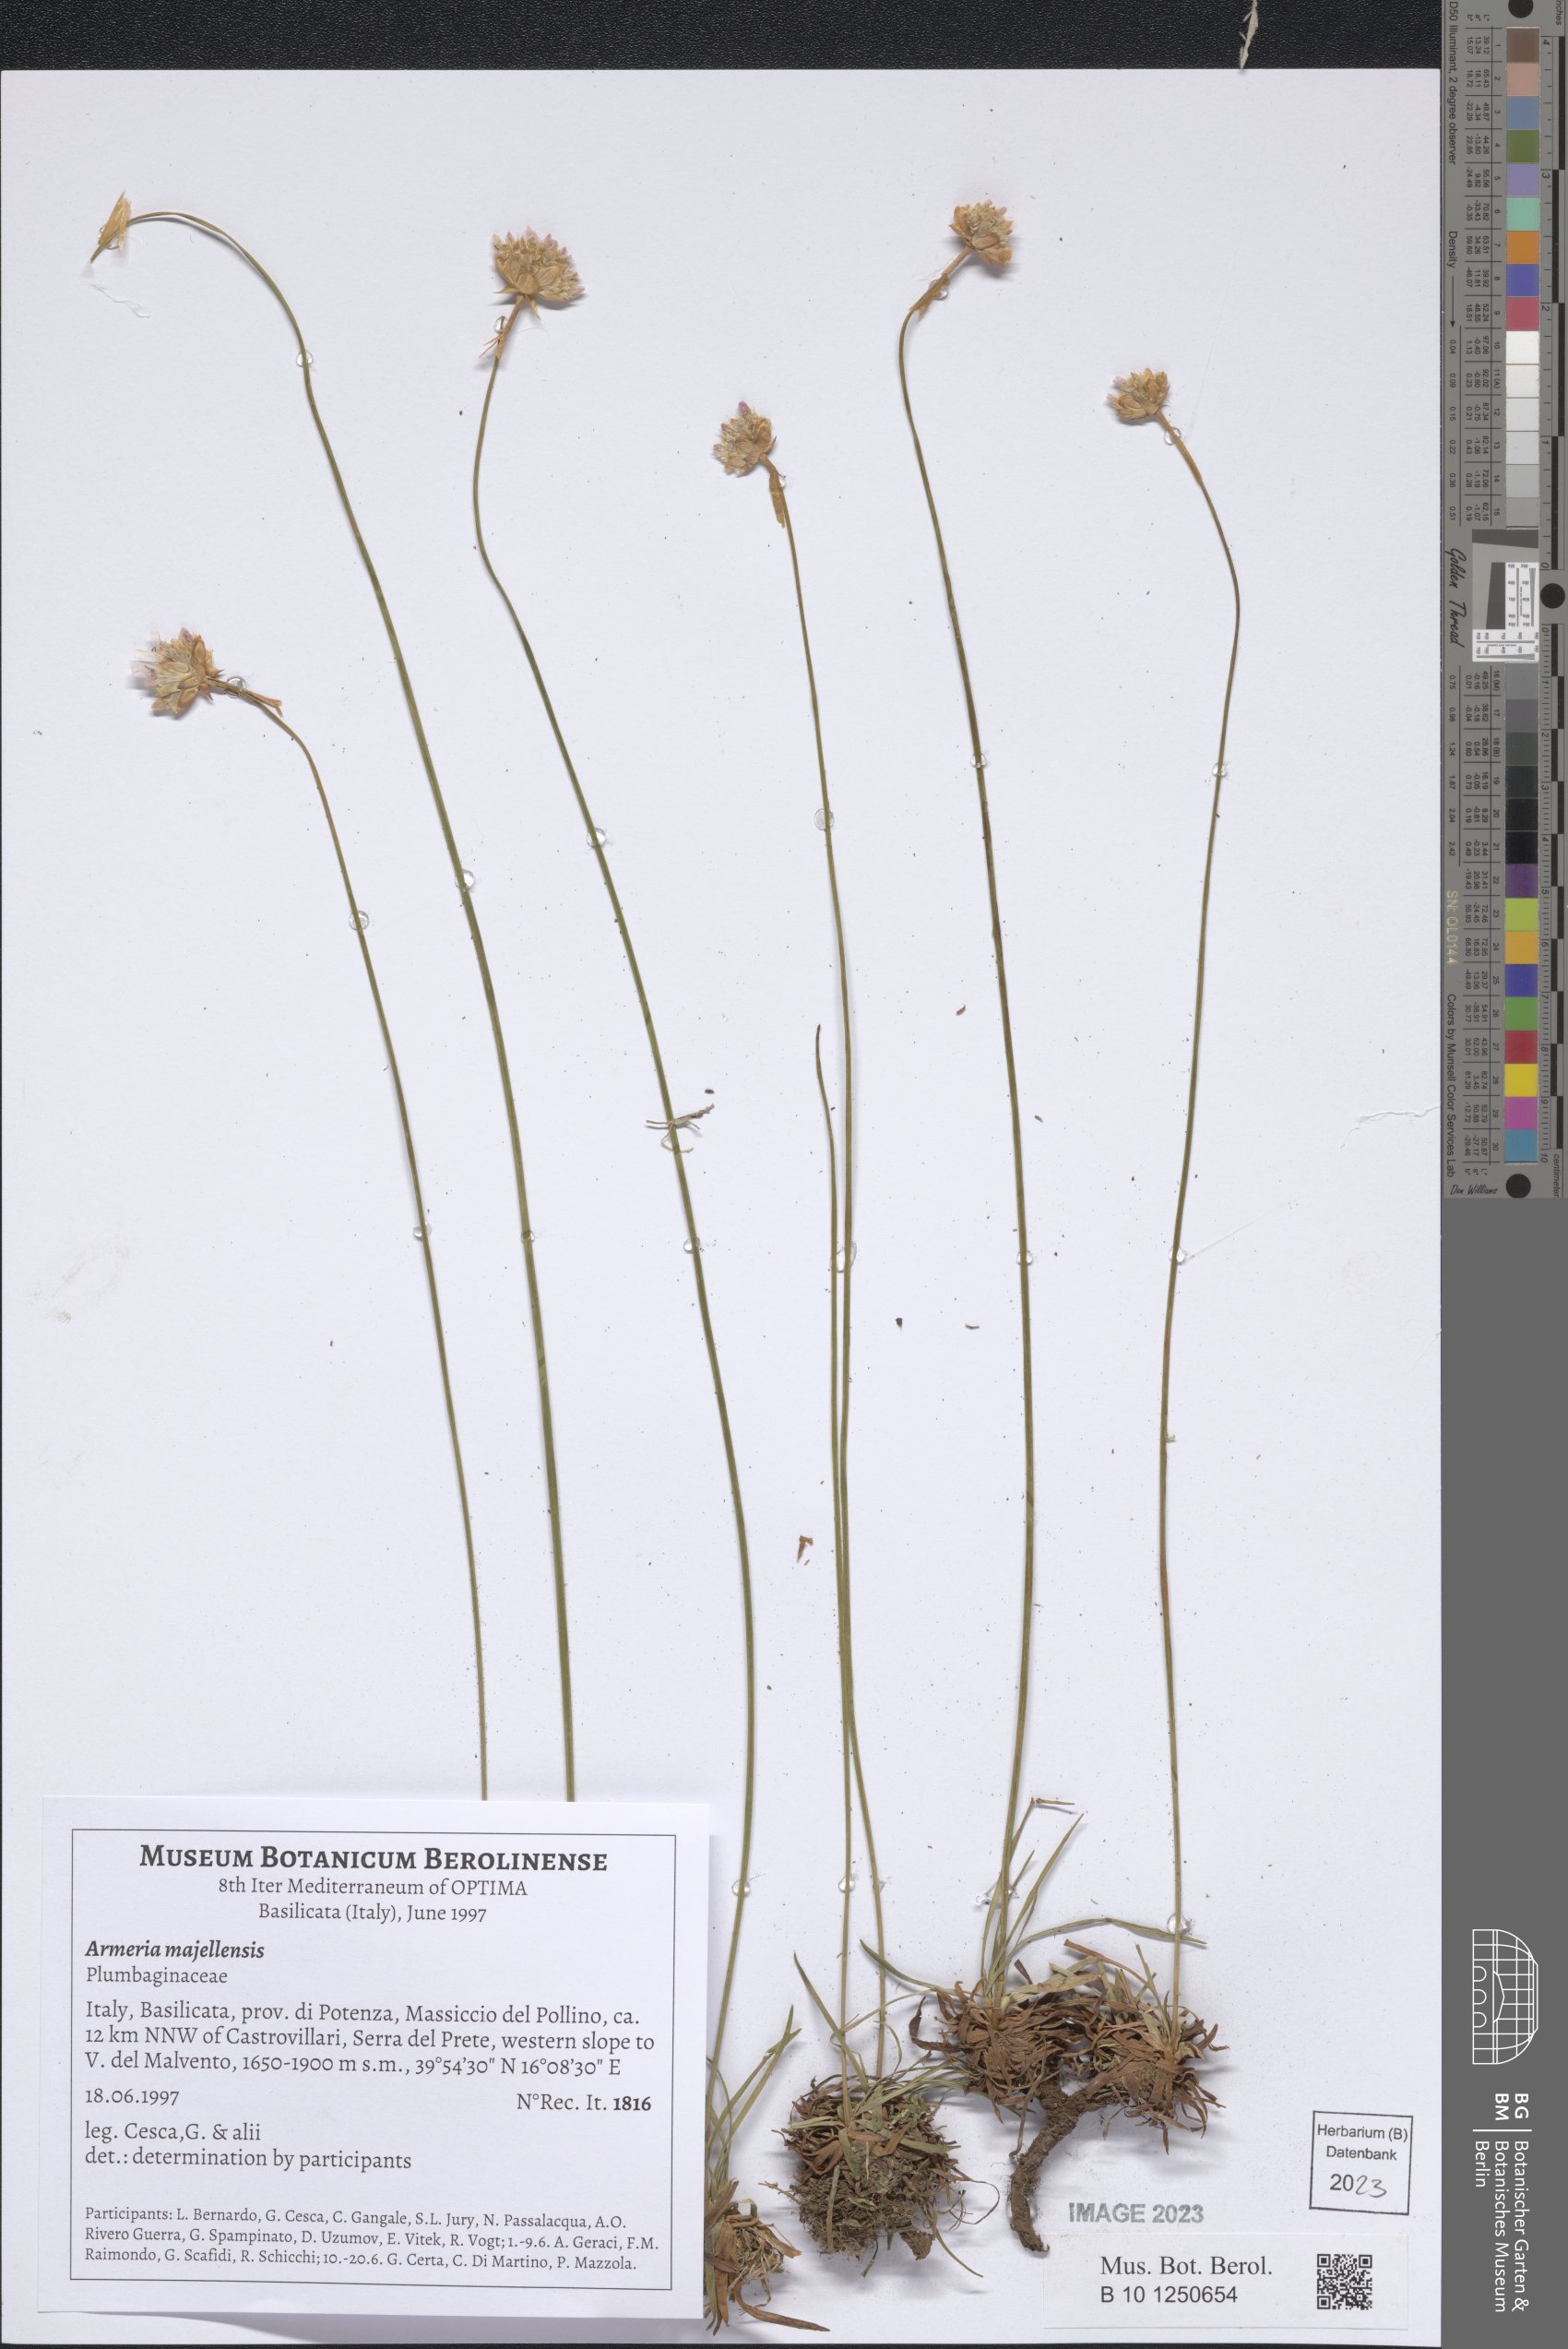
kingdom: Plantae
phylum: Tracheophyta
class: Magnoliopsida
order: Caryophyllales
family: Plumbaginaceae
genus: Armeria
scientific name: Armeria nebrodensis
